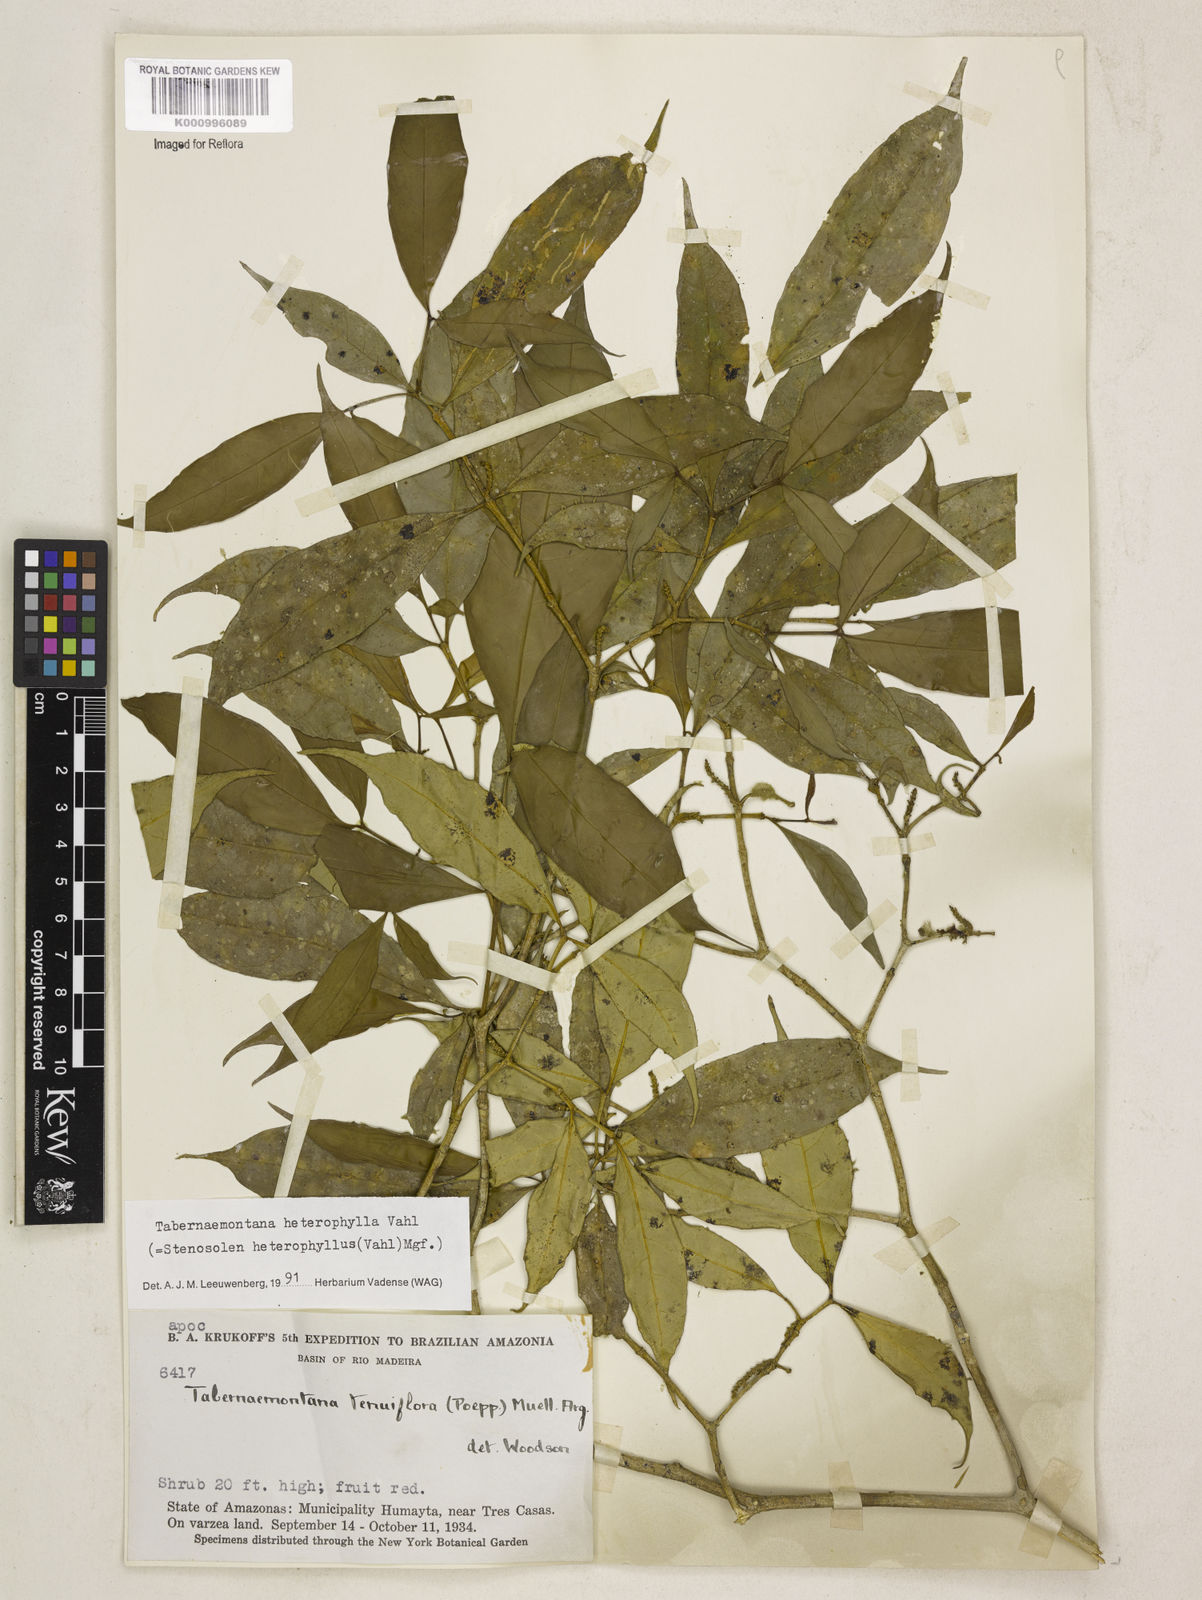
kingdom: Plantae
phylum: Tracheophyta
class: Magnoliopsida
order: Gentianales
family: Apocynaceae
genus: Tabernaemontana
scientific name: Tabernaemontana heterophylla
